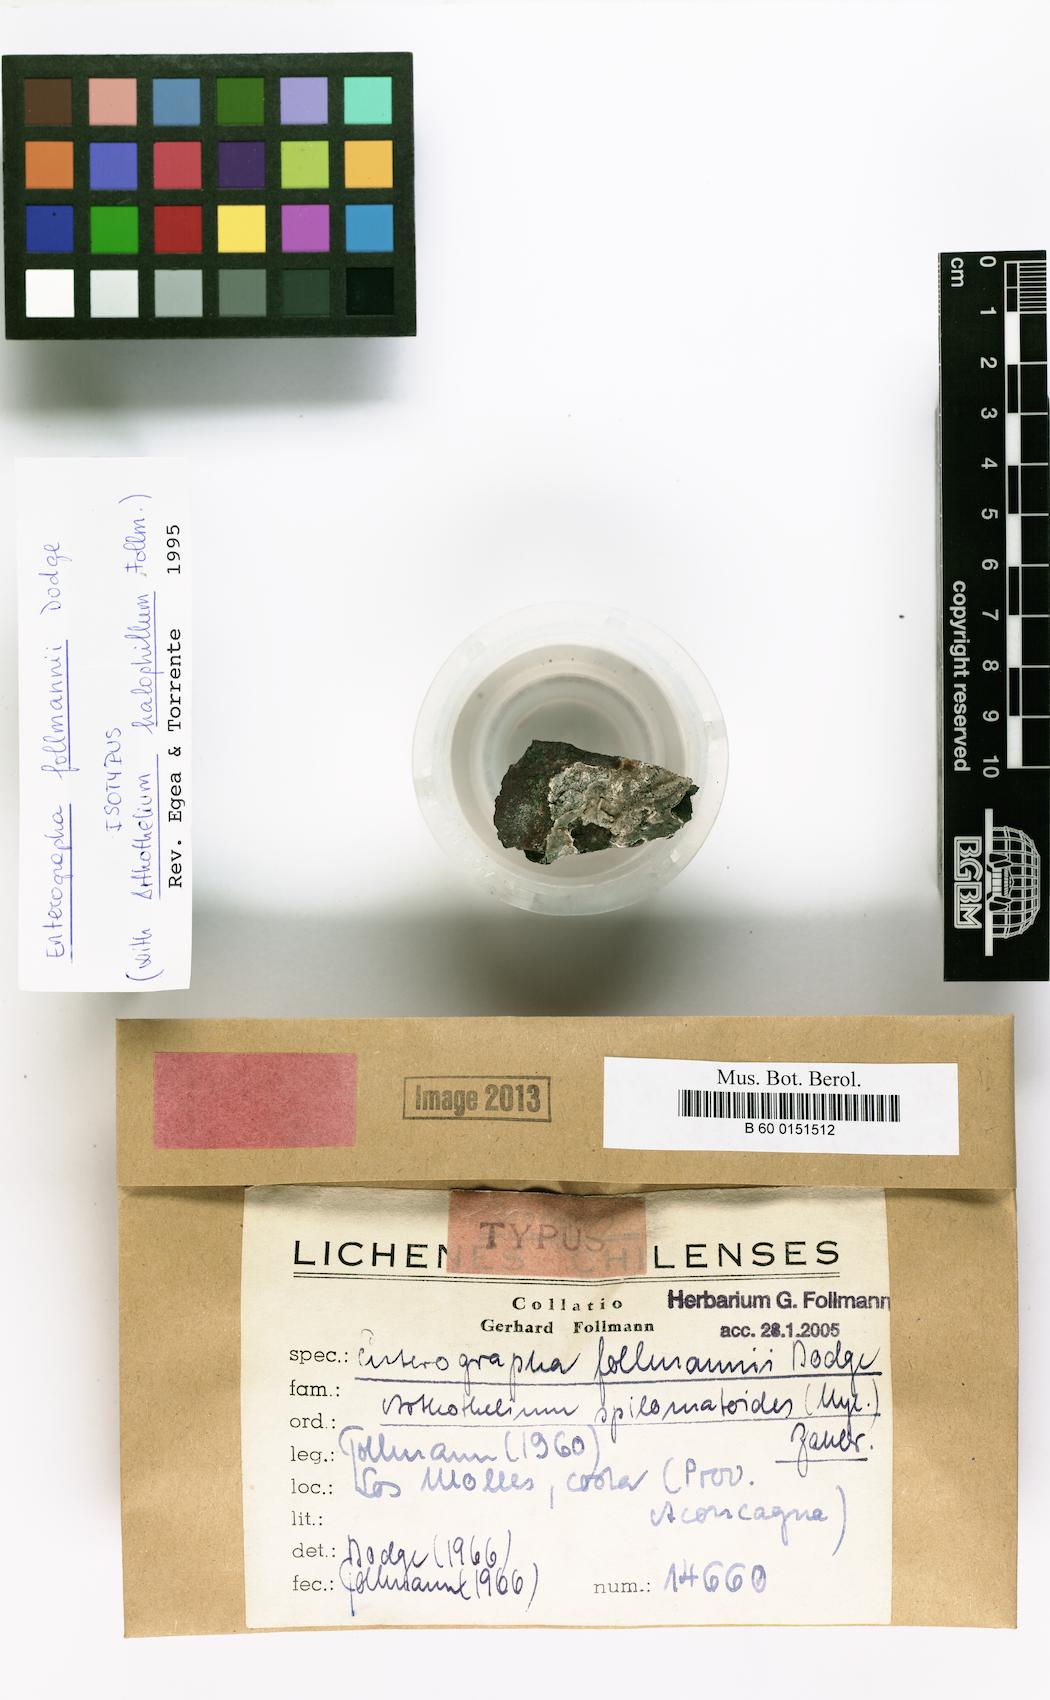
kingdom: Fungi
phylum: Ascomycota
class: Arthoniomycetes
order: Arthoniales
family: Roccellaceae
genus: Dirina
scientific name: Dirina follmannii
